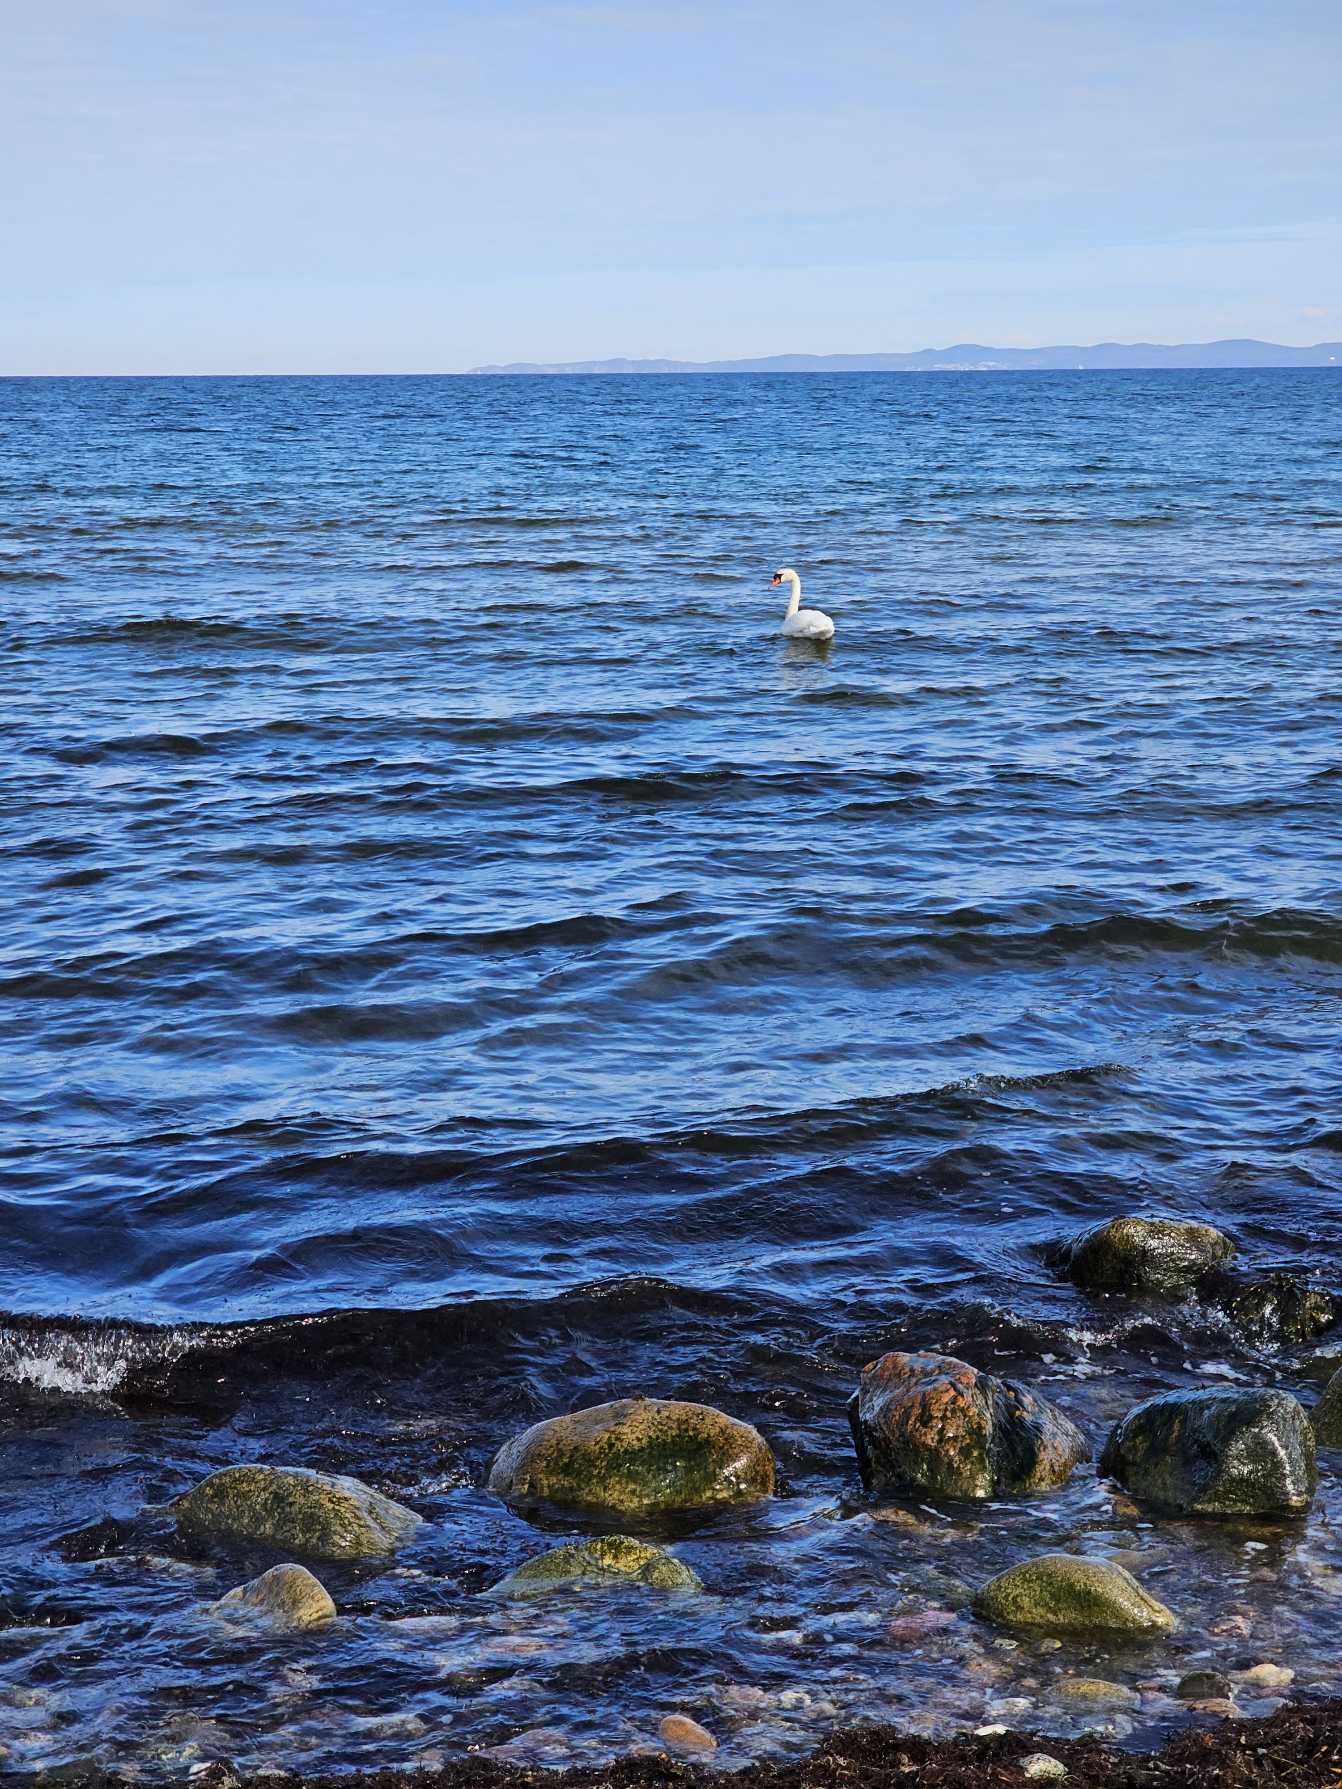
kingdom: Animalia
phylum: Chordata
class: Aves
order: Anseriformes
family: Anatidae
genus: Cygnus
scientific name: Cygnus olor
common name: Knopsvane
